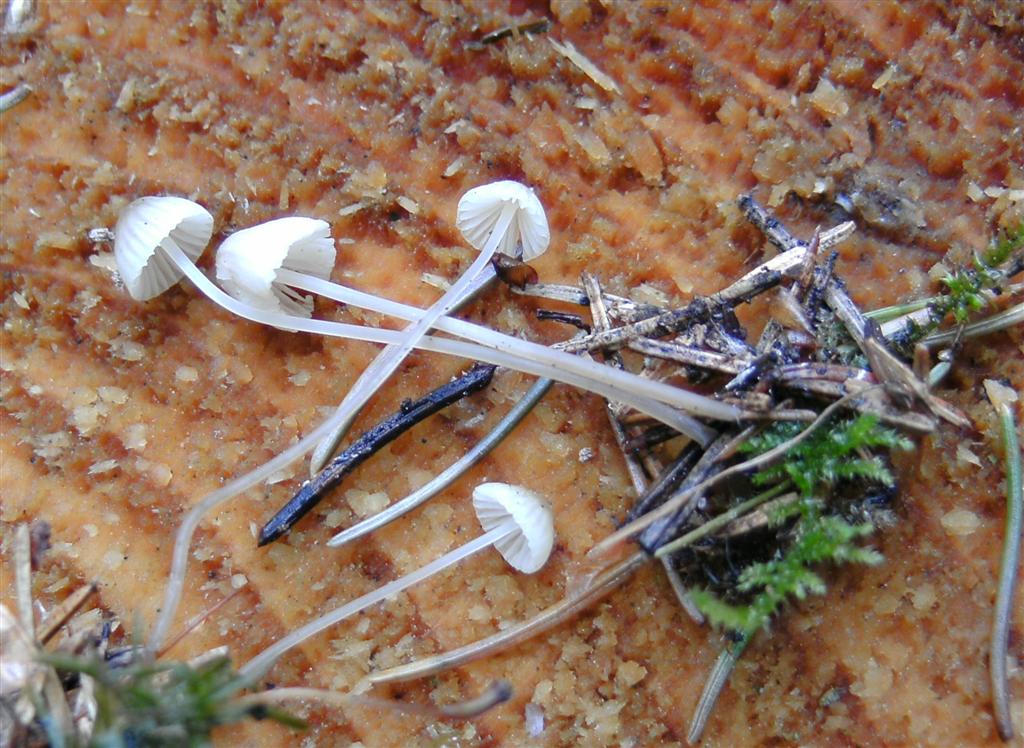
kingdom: Fungi
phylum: Basidiomycota
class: Agaricomycetes
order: Agaricales
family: Mycenaceae
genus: Mycena
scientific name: Mycena vitilis
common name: blankstokket huesvamp
